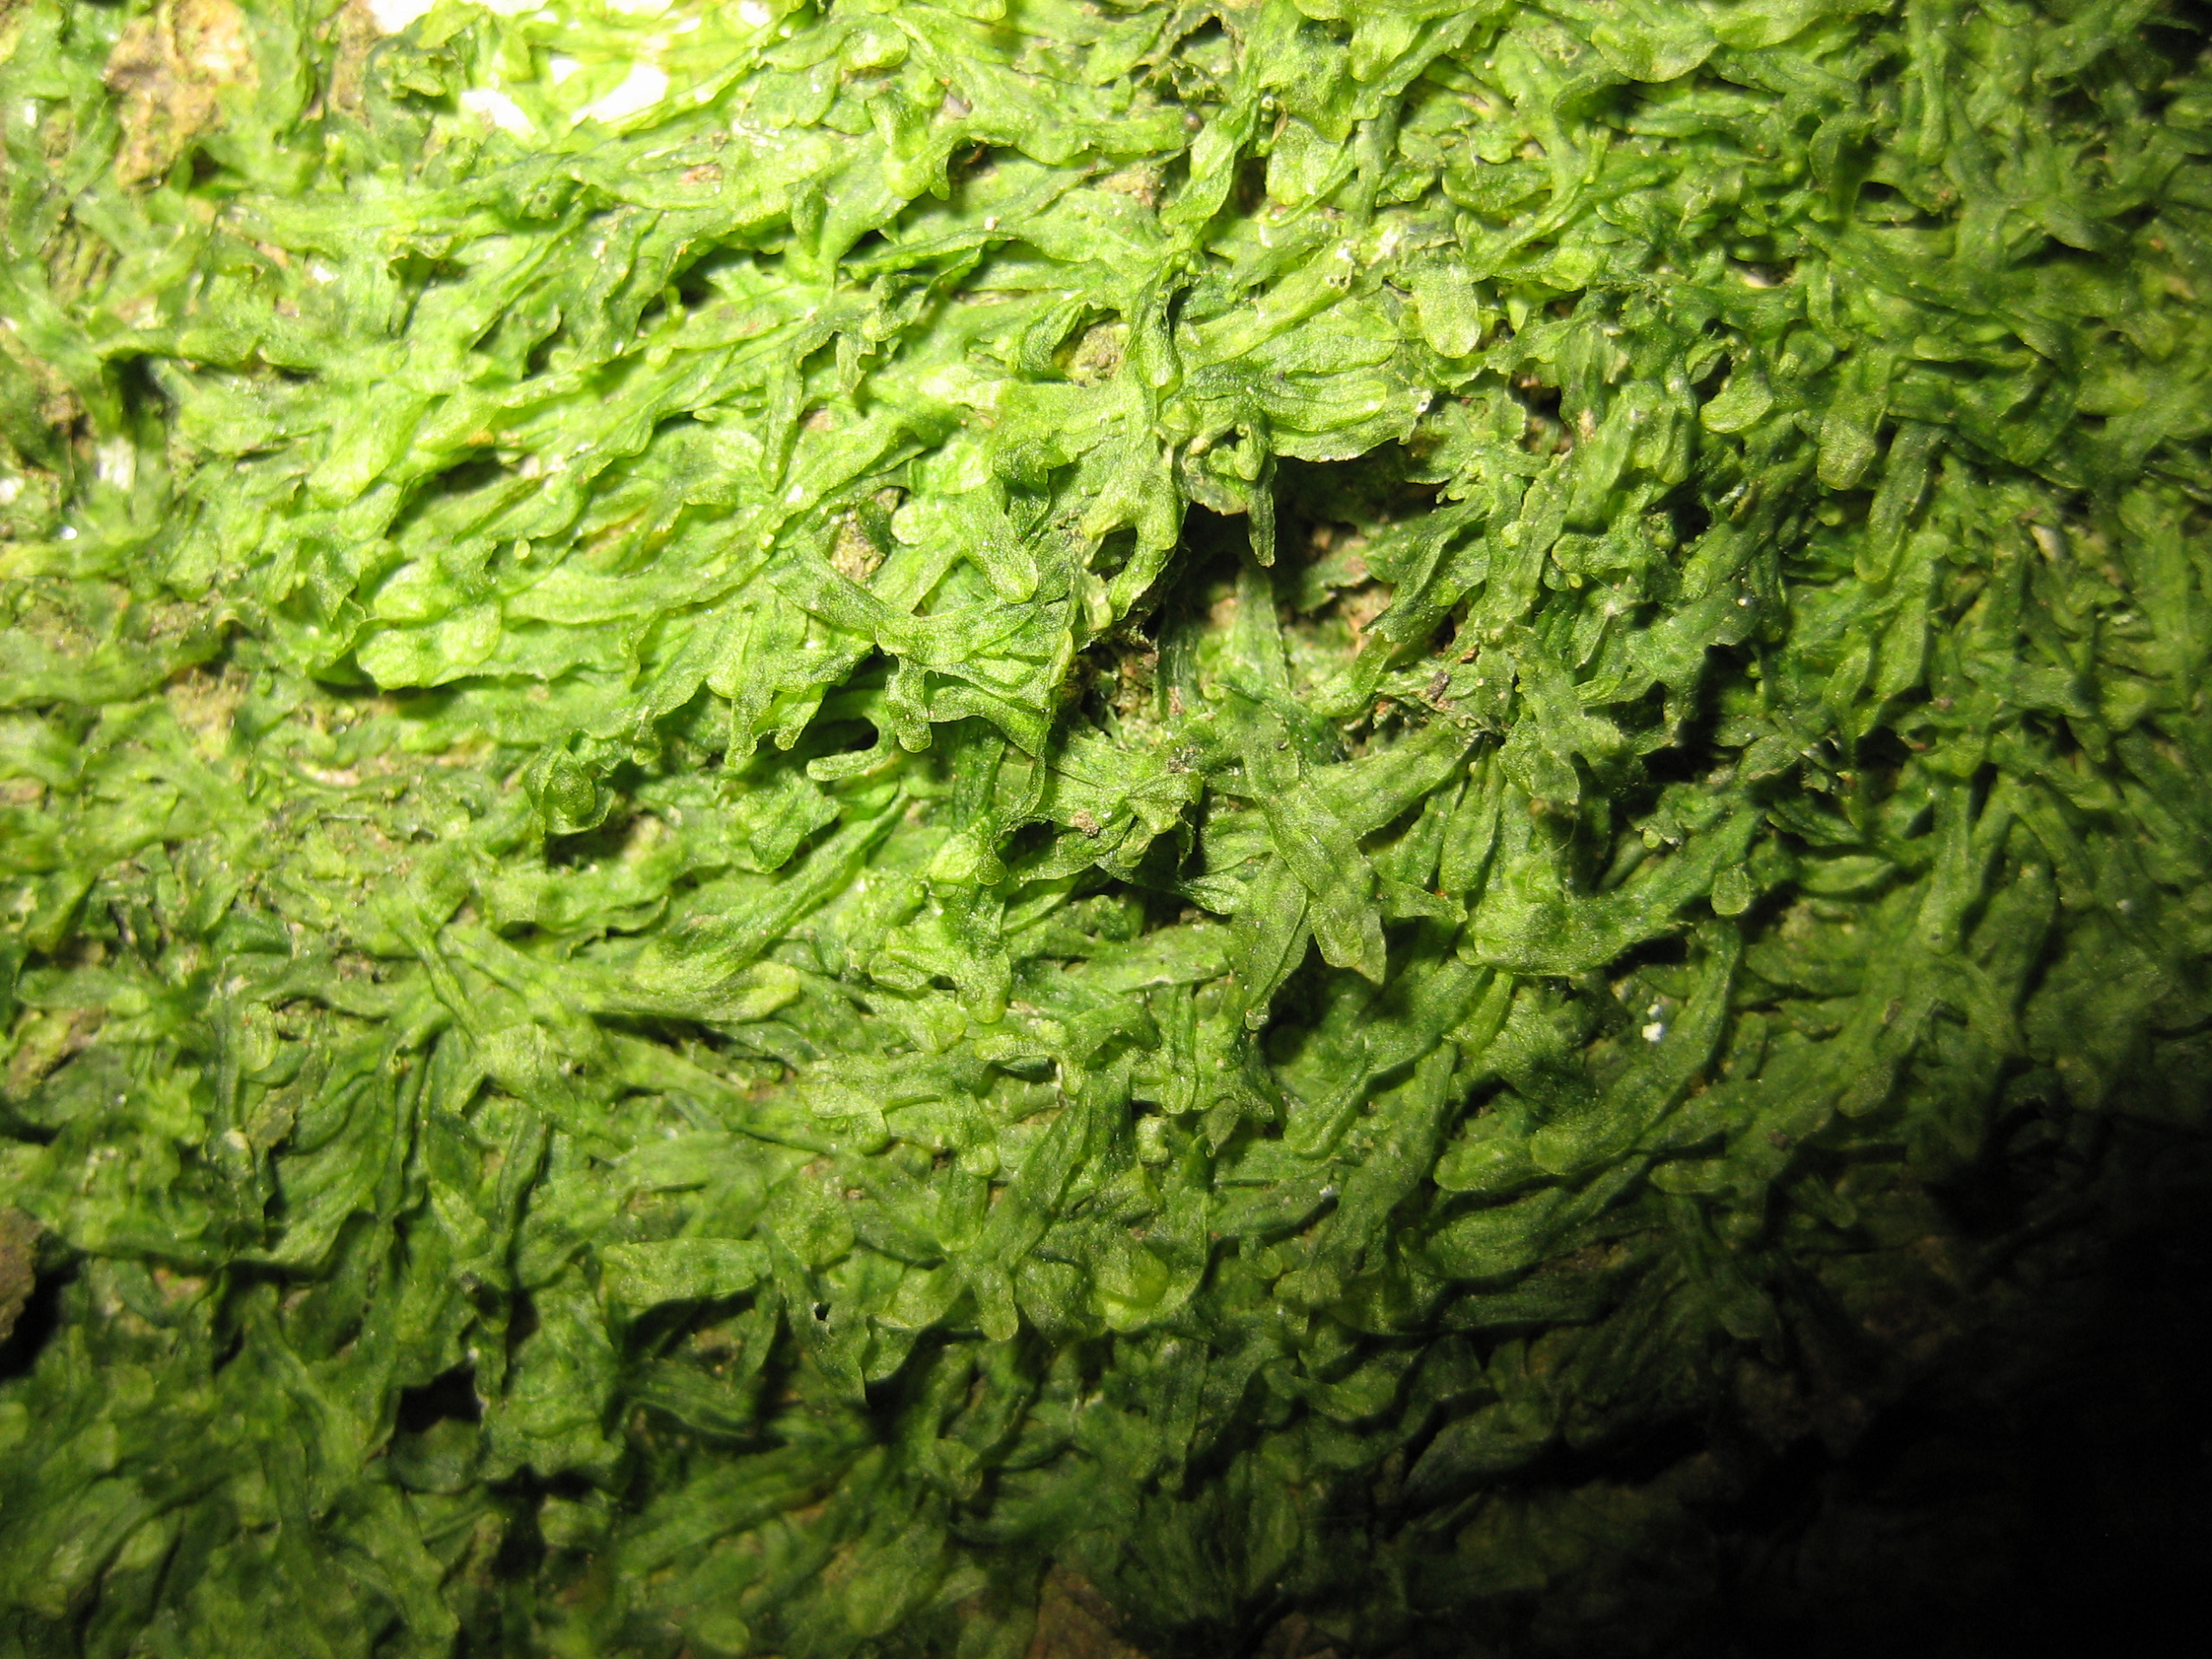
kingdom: Plantae
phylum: Marchantiophyta
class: Jungermanniopsida
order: Metzgeriales
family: Metzgeriaceae
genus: Metzgeria
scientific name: Metzgeria furcata
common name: Almindelig gaffelløv
